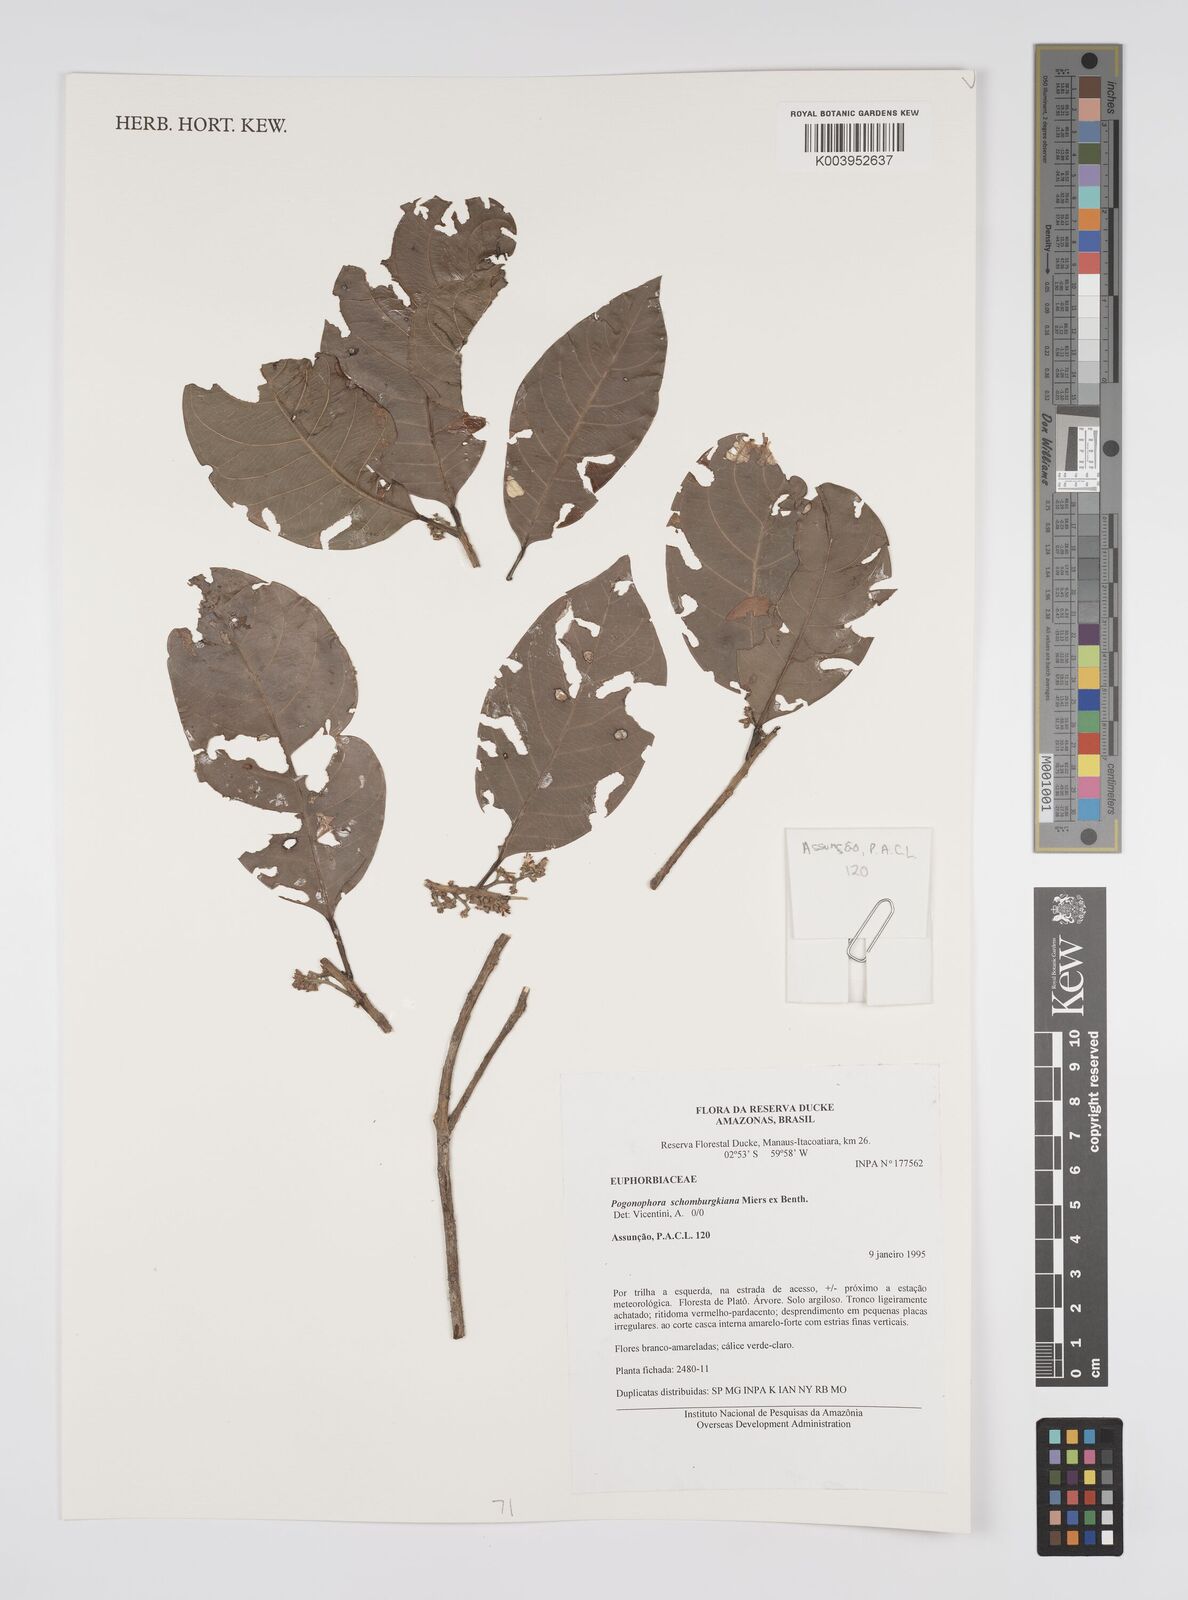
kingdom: Plantae
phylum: Tracheophyta
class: Magnoliopsida
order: Malpighiales
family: Peraceae
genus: Pogonophora
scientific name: Pogonophora schomburgkiana
